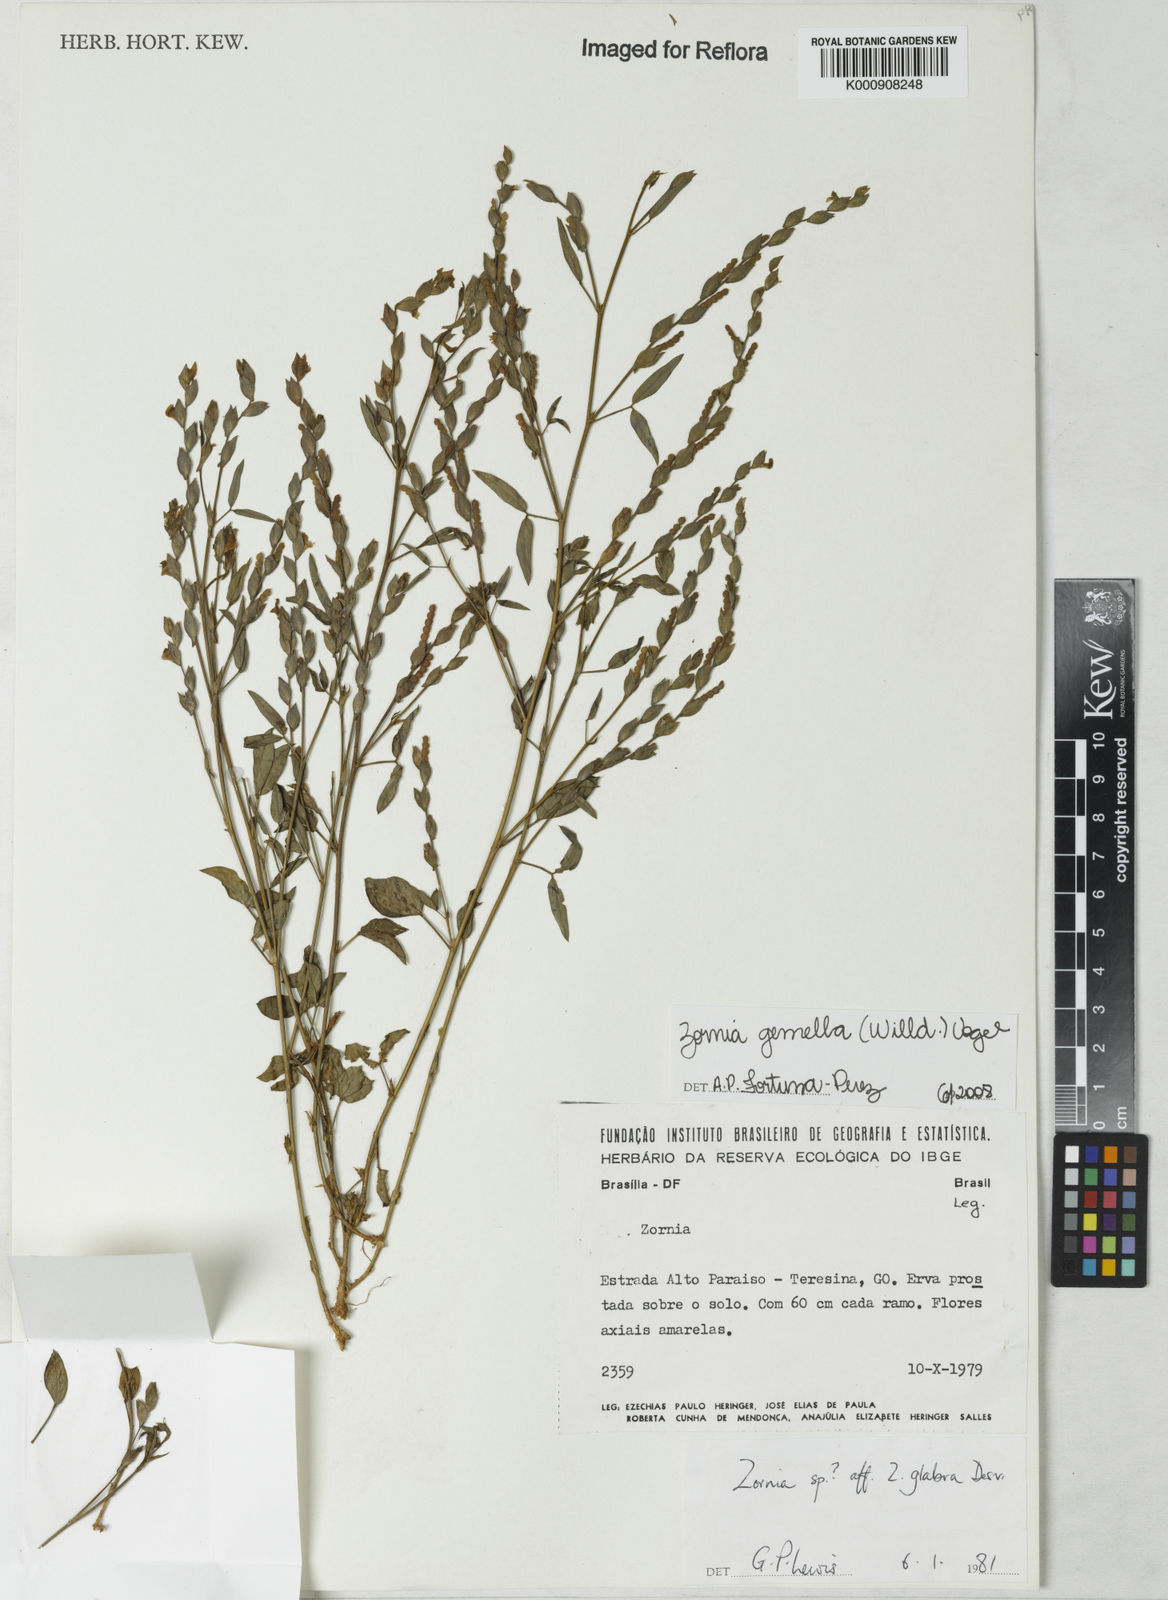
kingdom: Plantae
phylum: Tracheophyta
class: Magnoliopsida
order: Fabales
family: Fabaceae
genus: Zornia
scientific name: Zornia latifolia
